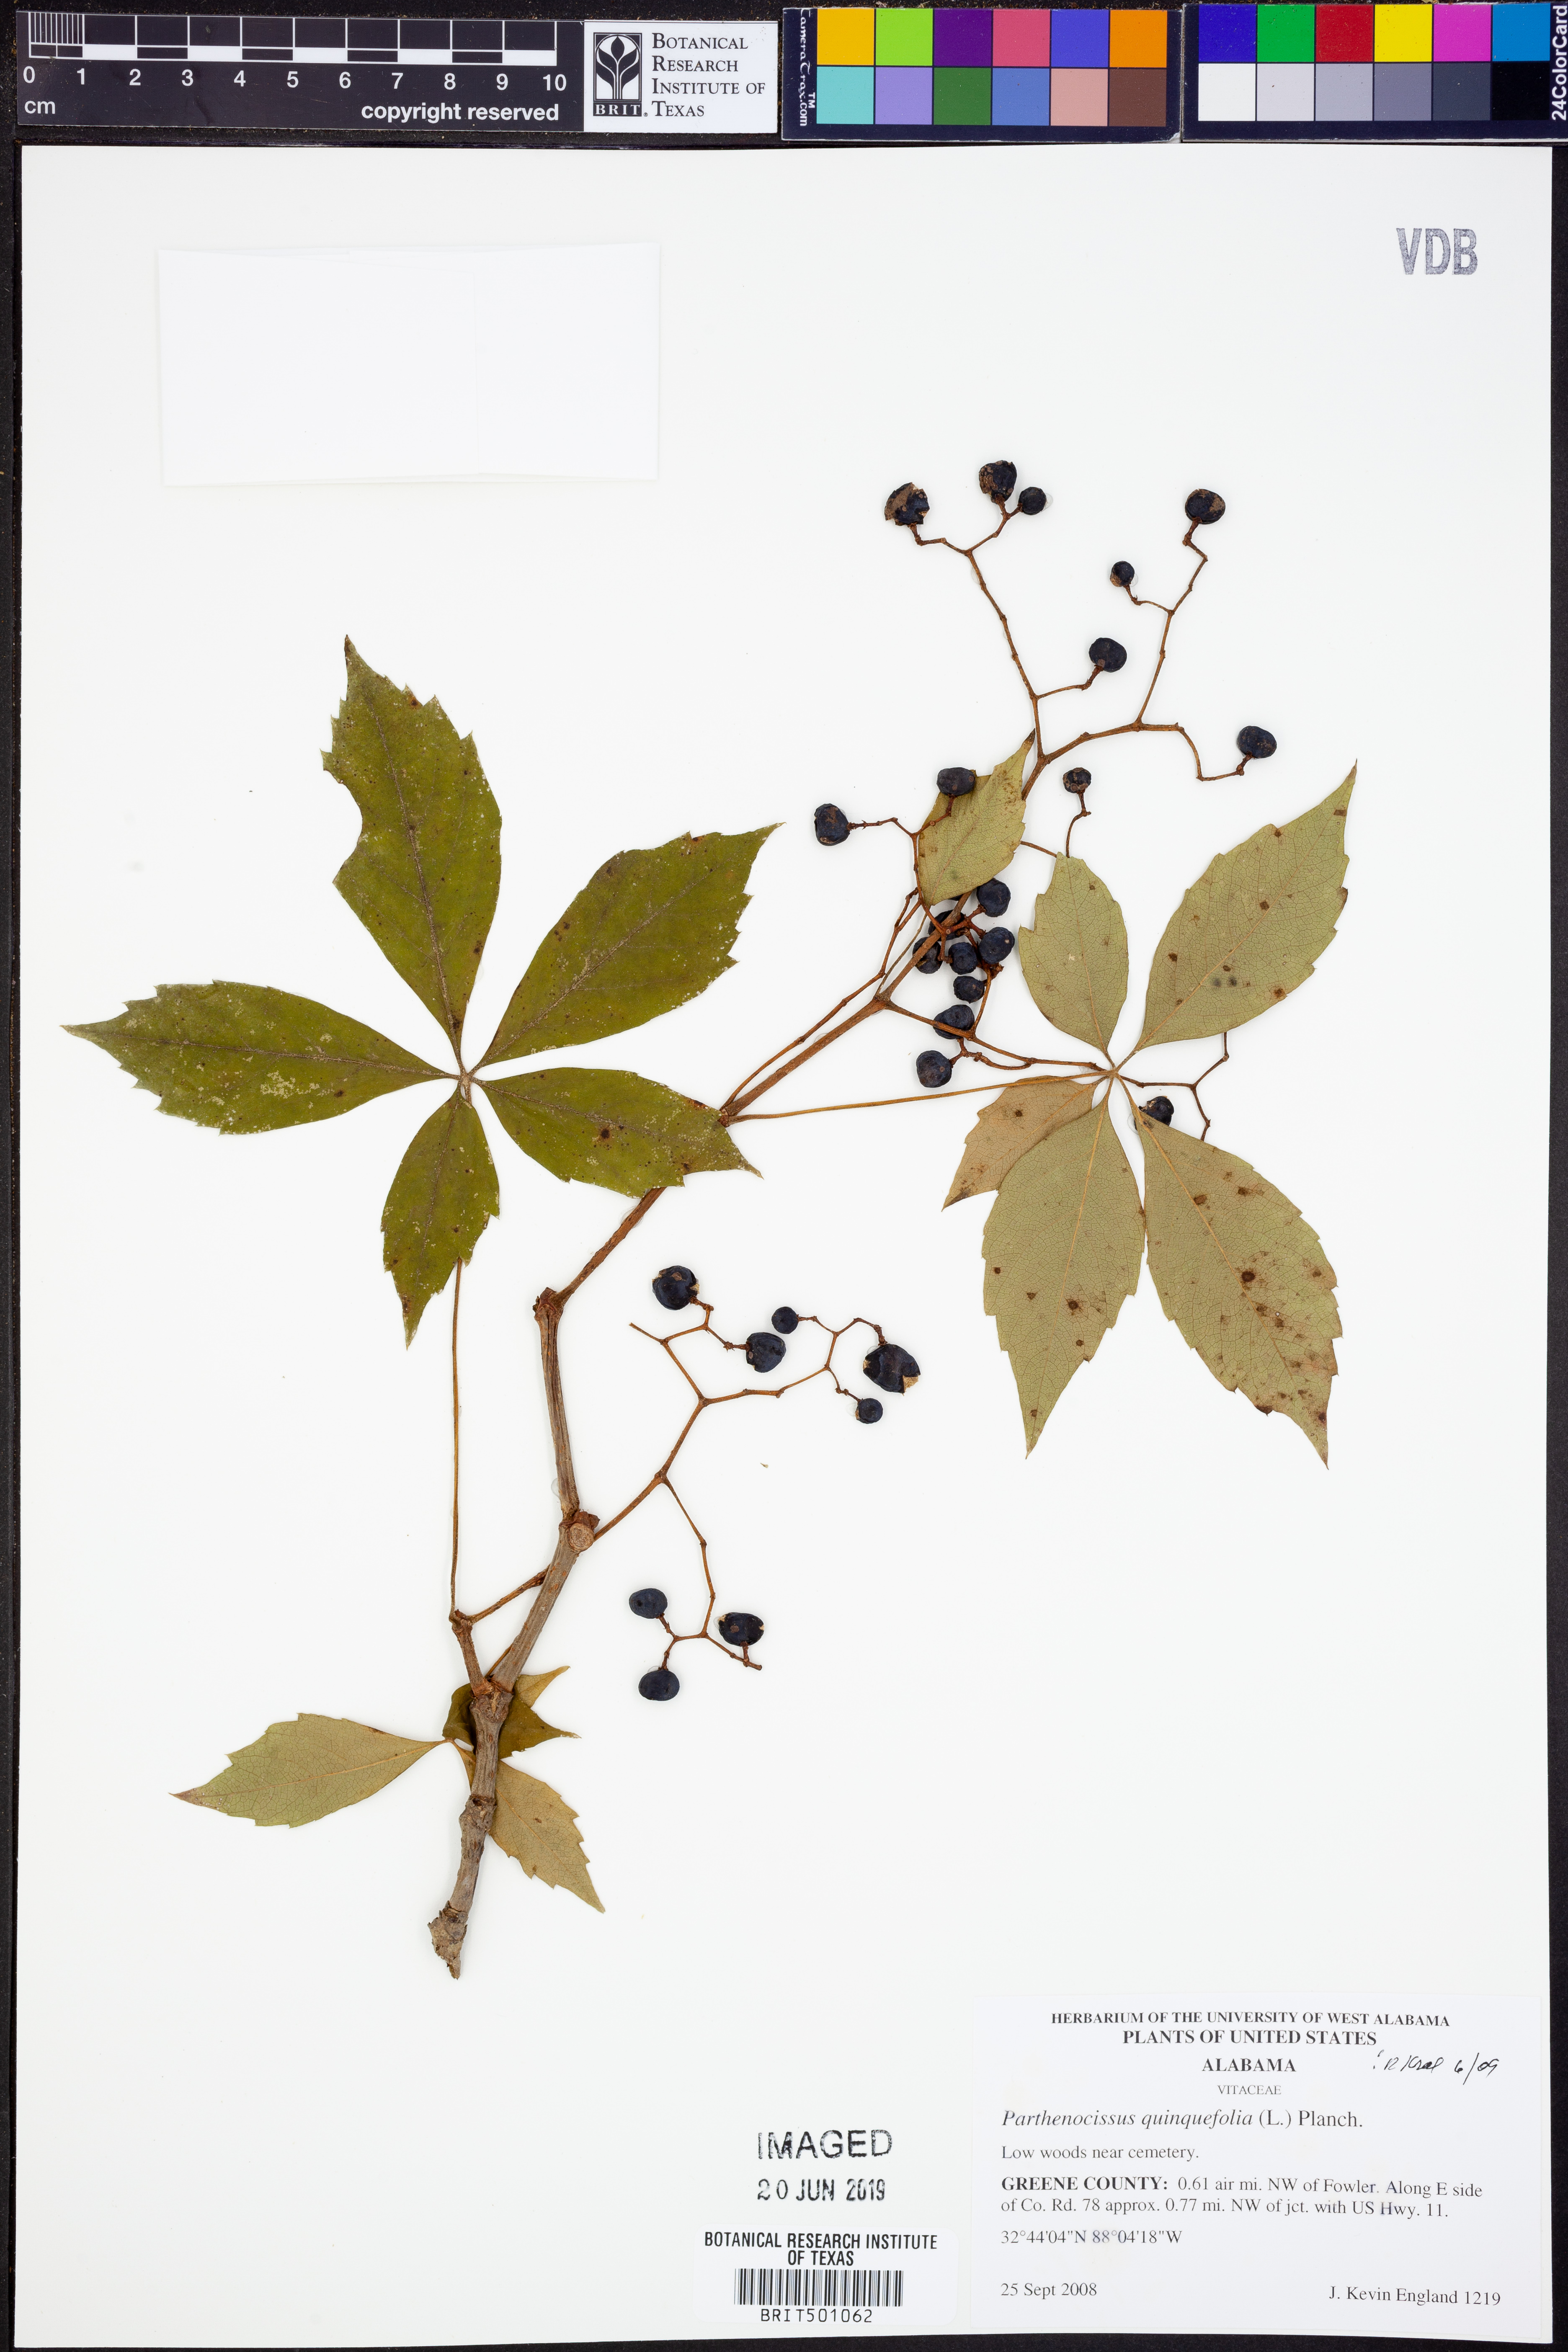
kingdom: Plantae
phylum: Tracheophyta
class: Magnoliopsida
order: Vitales
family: Vitaceae
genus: Parthenocissus
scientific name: Parthenocissus quinquefolia
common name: Virginia-creeper
